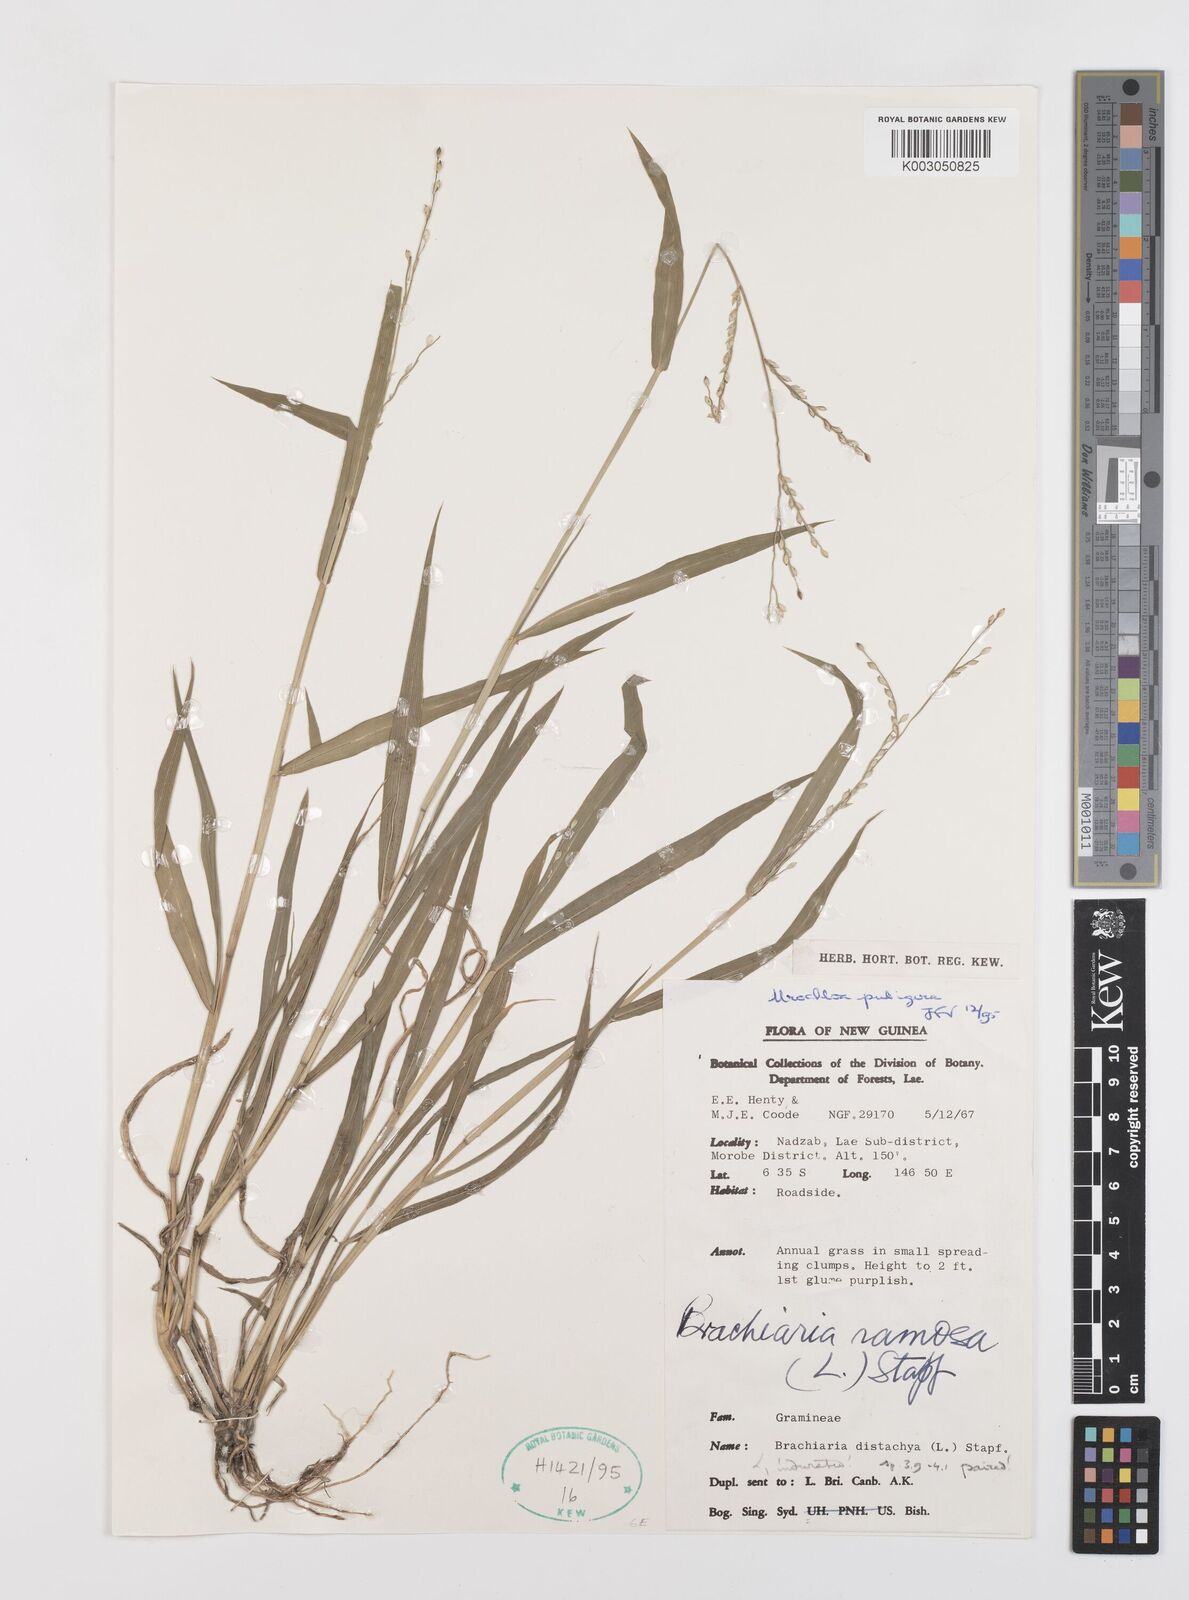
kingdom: Plantae
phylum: Tracheophyta
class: Liliopsida
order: Poales
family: Poaceae
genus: Urochloa
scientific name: Urochloa ramosa
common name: Browntop millet
